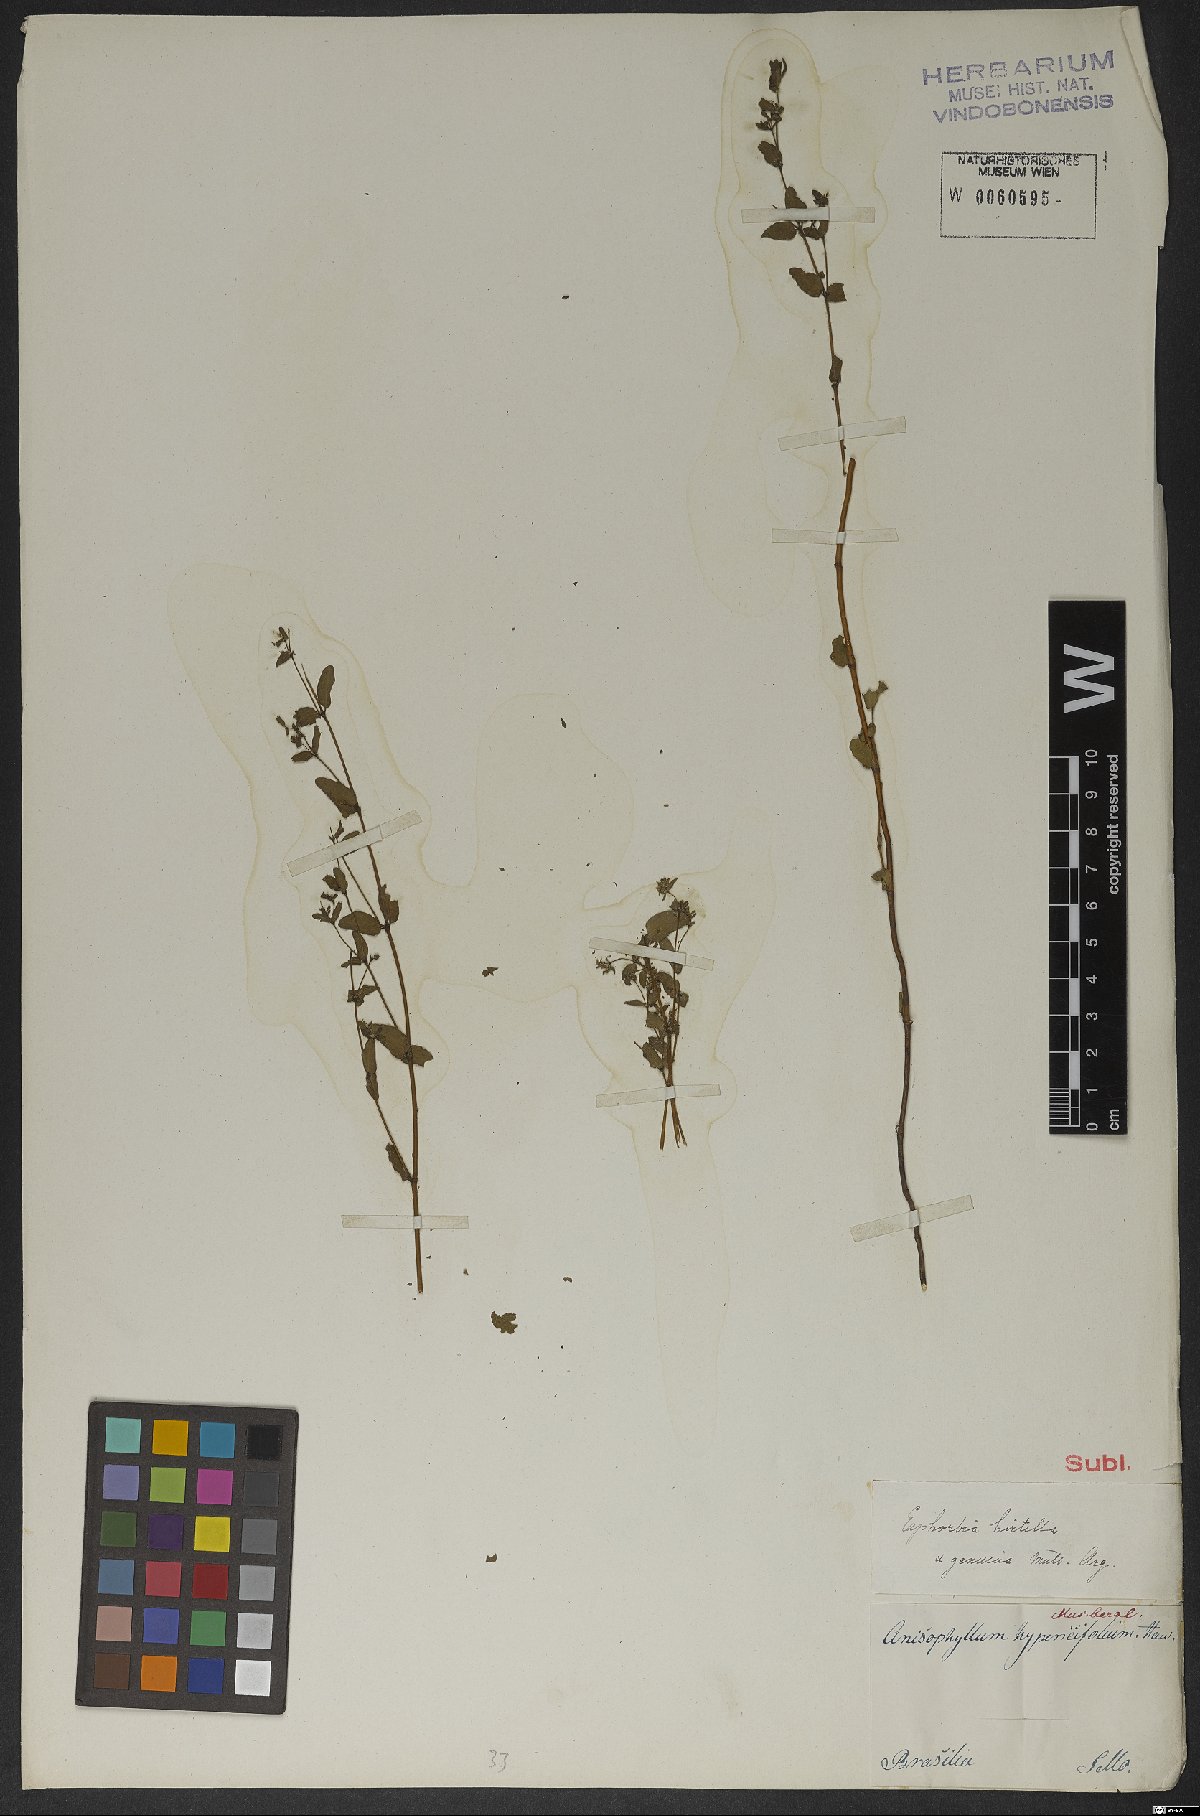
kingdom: Plantae
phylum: Tracheophyta
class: Magnoliopsida
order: Malpighiales
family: Euphorbiaceae
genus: Euphorbia
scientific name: Euphorbia
